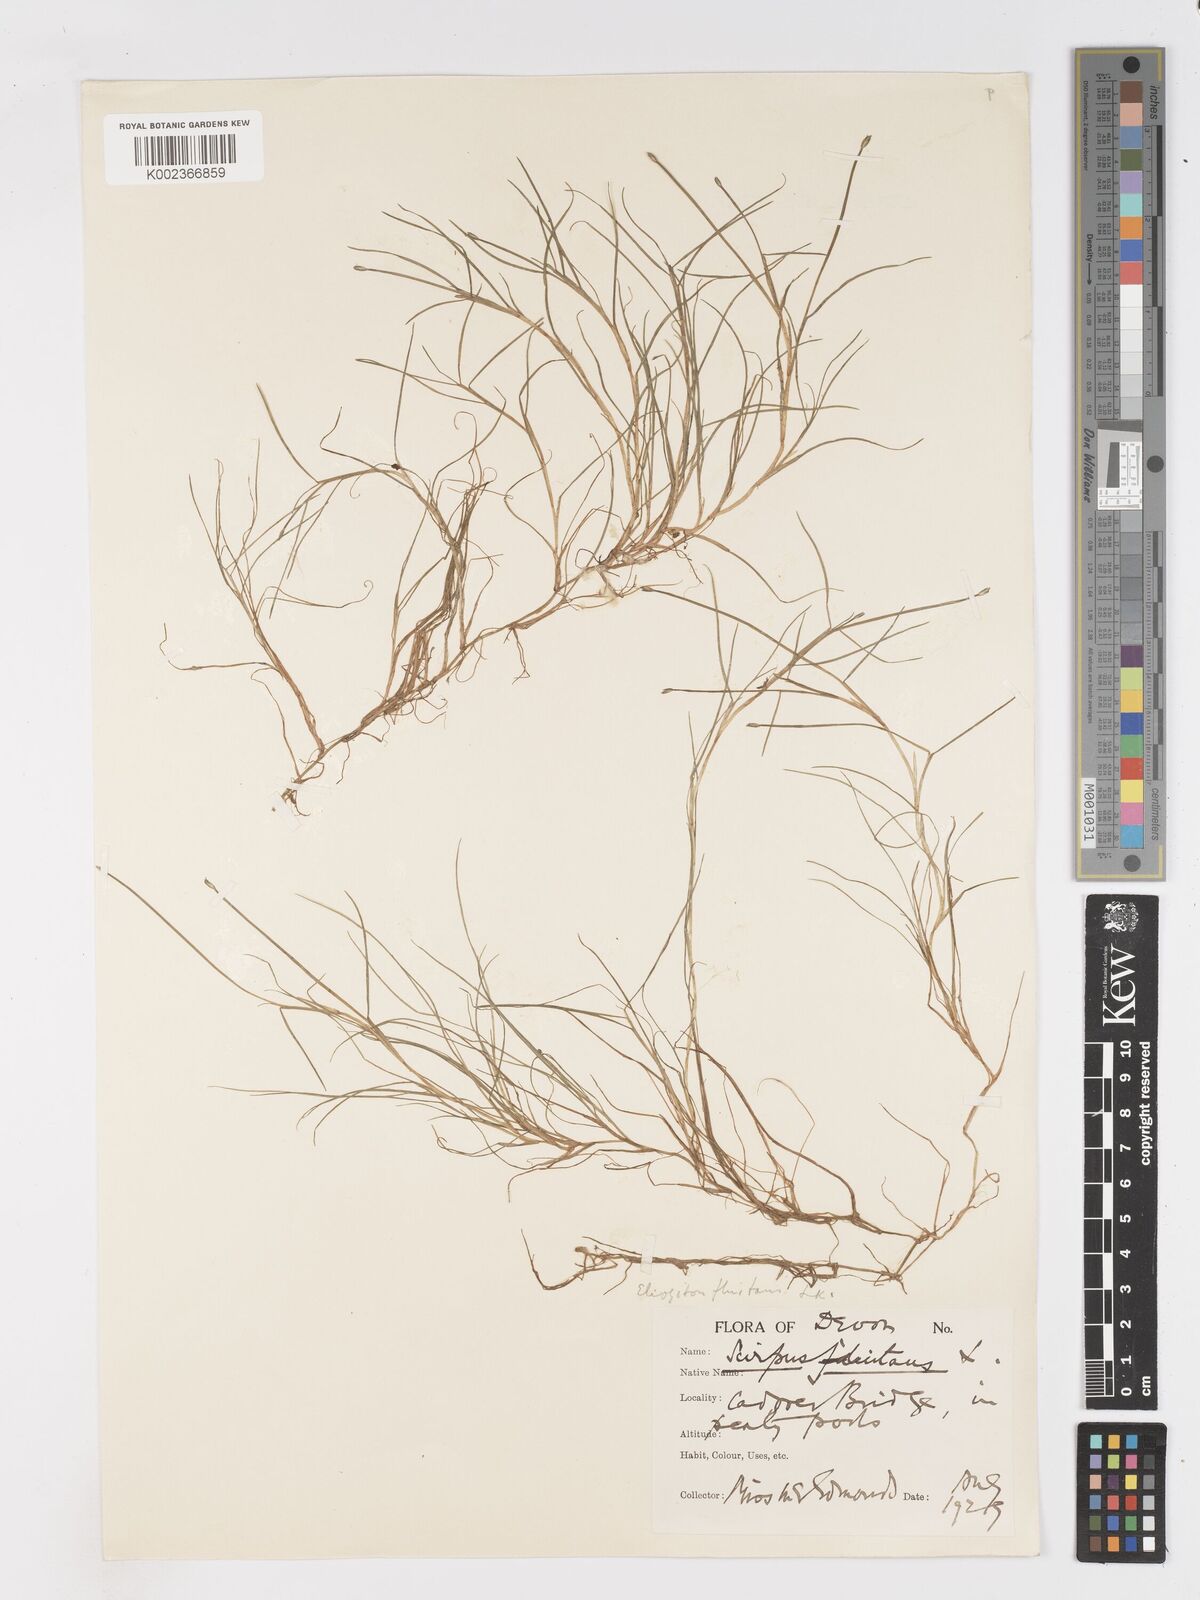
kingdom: Plantae
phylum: Tracheophyta
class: Liliopsida
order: Poales
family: Cyperaceae
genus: Isolepis
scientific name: Isolepis fluitans
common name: Floating club-rush
